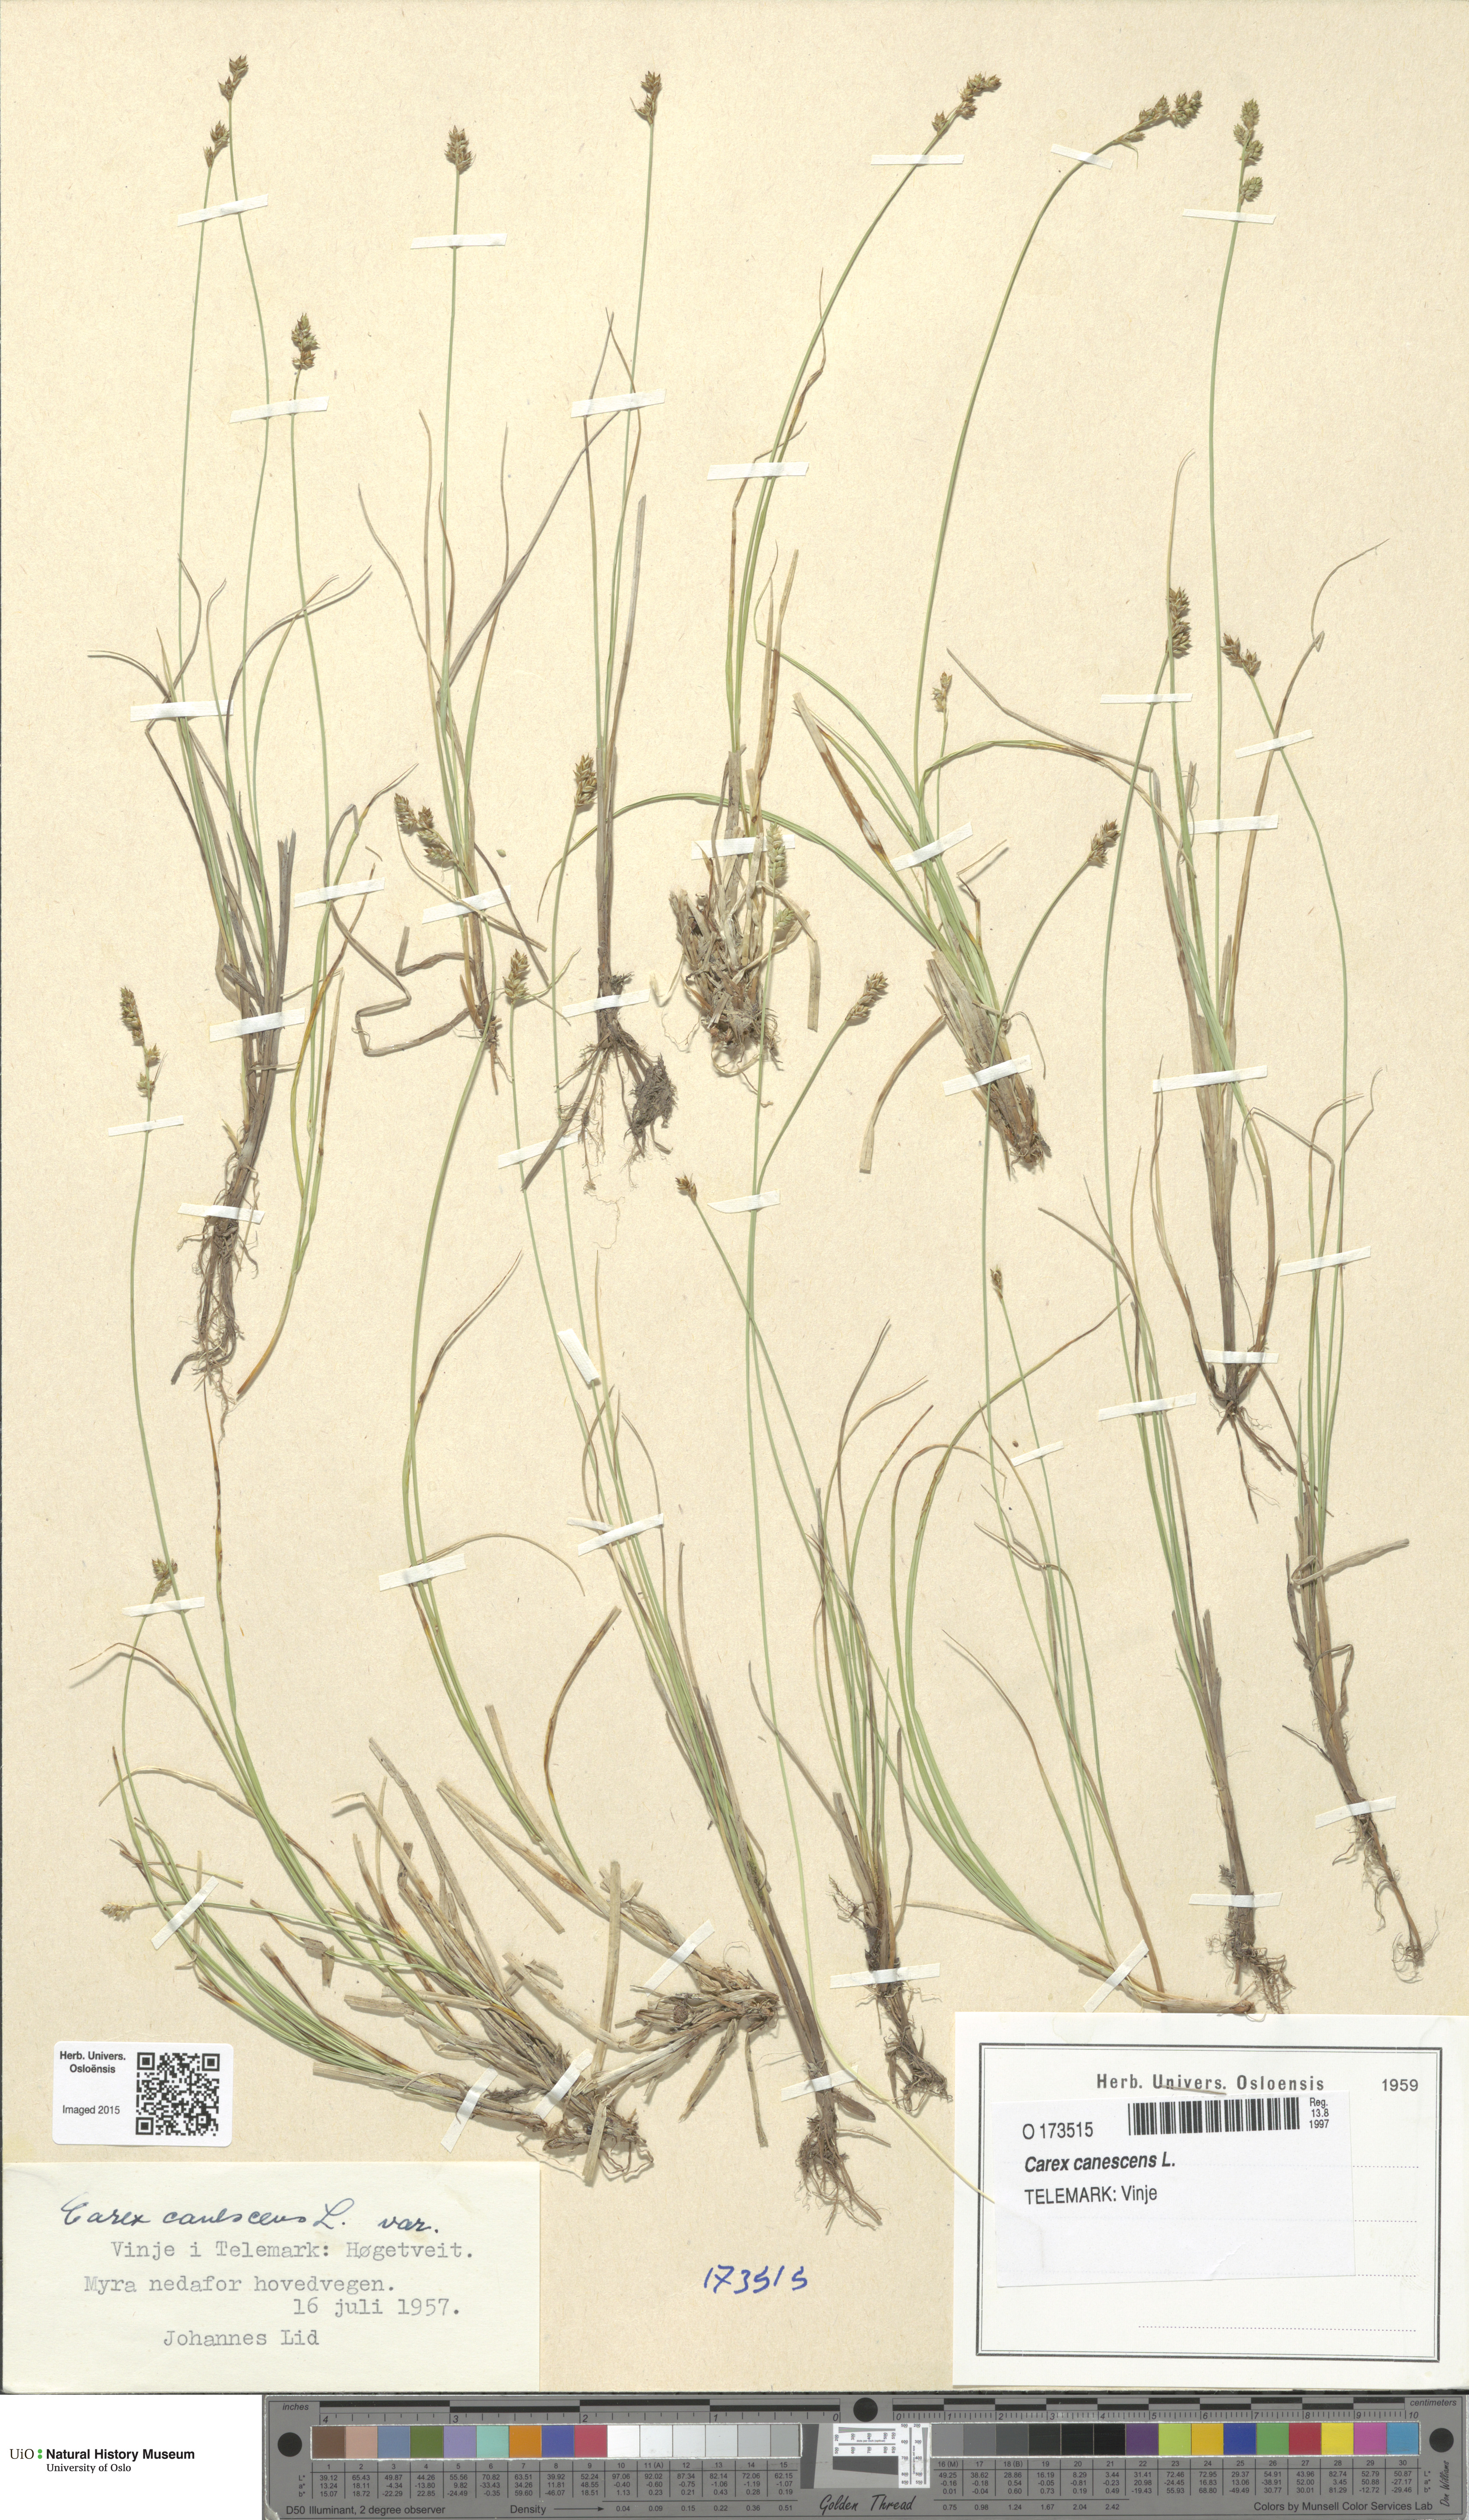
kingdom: Plantae
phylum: Tracheophyta
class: Liliopsida
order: Poales
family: Cyperaceae
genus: Carex
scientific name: Carex canescens
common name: White sedge
